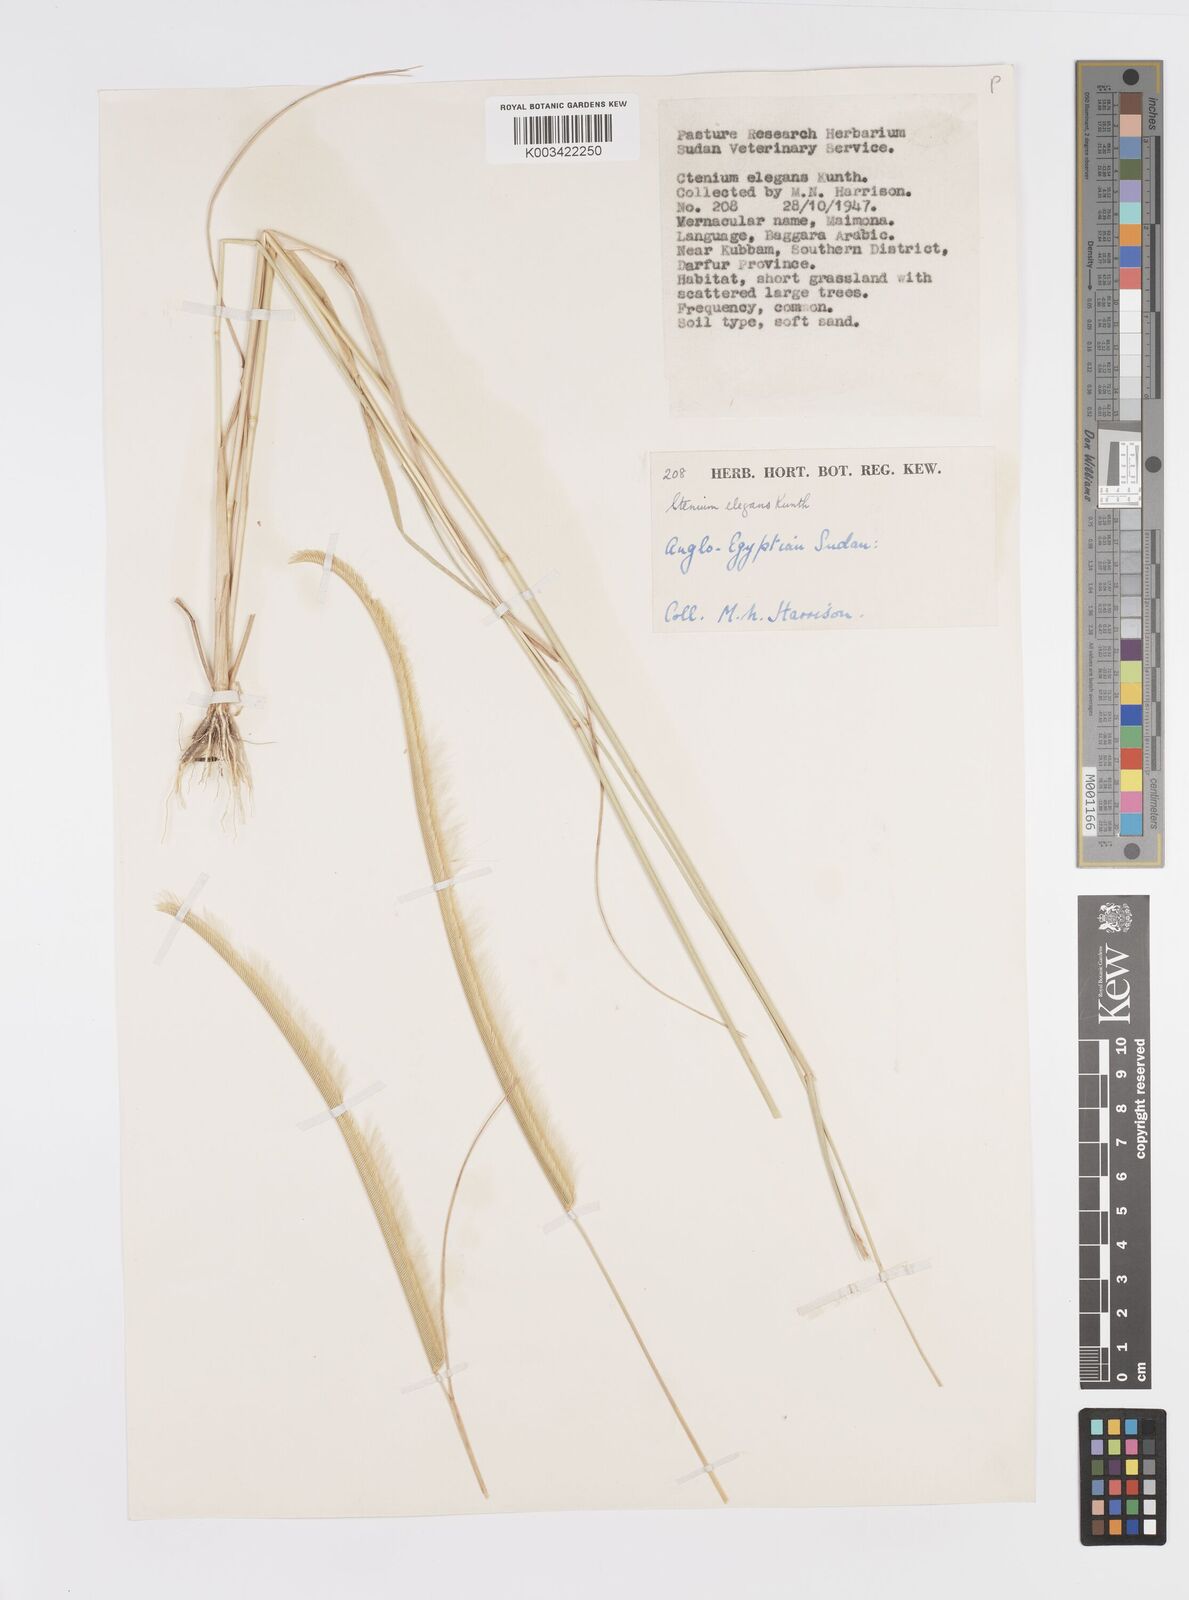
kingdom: Plantae
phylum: Tracheophyta
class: Liliopsida
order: Poales
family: Poaceae
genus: Ctenium
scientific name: Ctenium elegans
